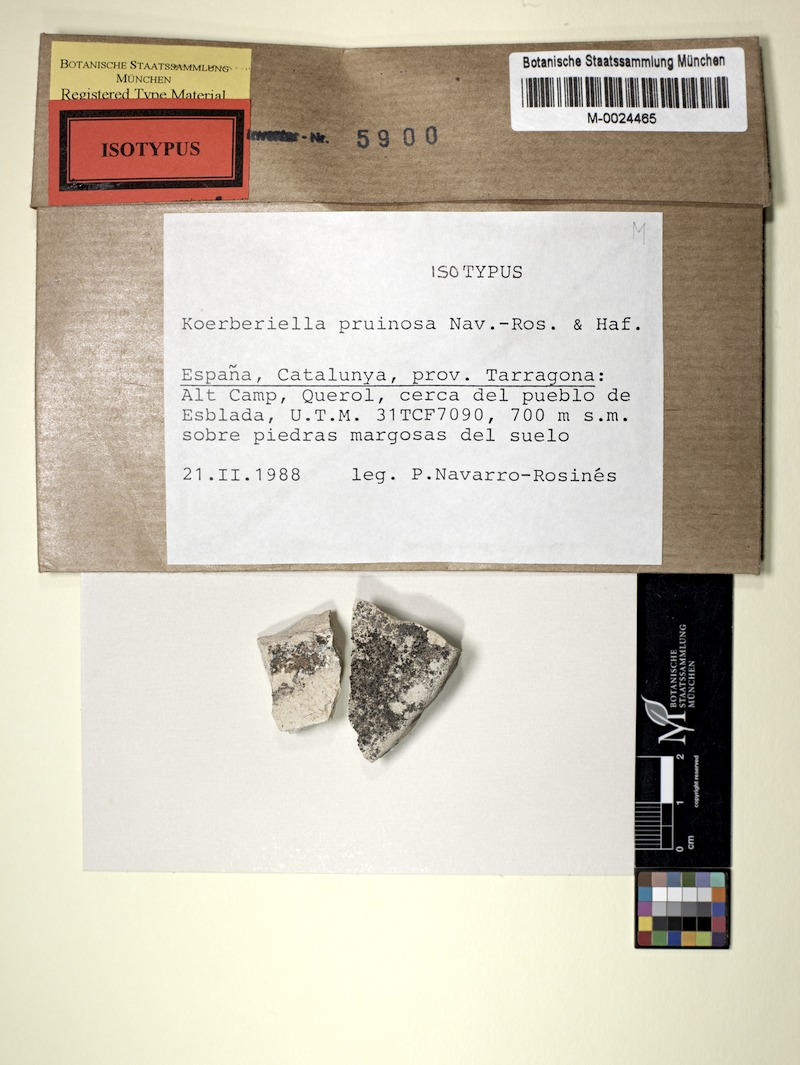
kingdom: Fungi
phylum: Ascomycota
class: Lecanoromycetes
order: Lecideales
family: Lecideaceae
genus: Koerberiella
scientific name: Koerberiella pruinosa
